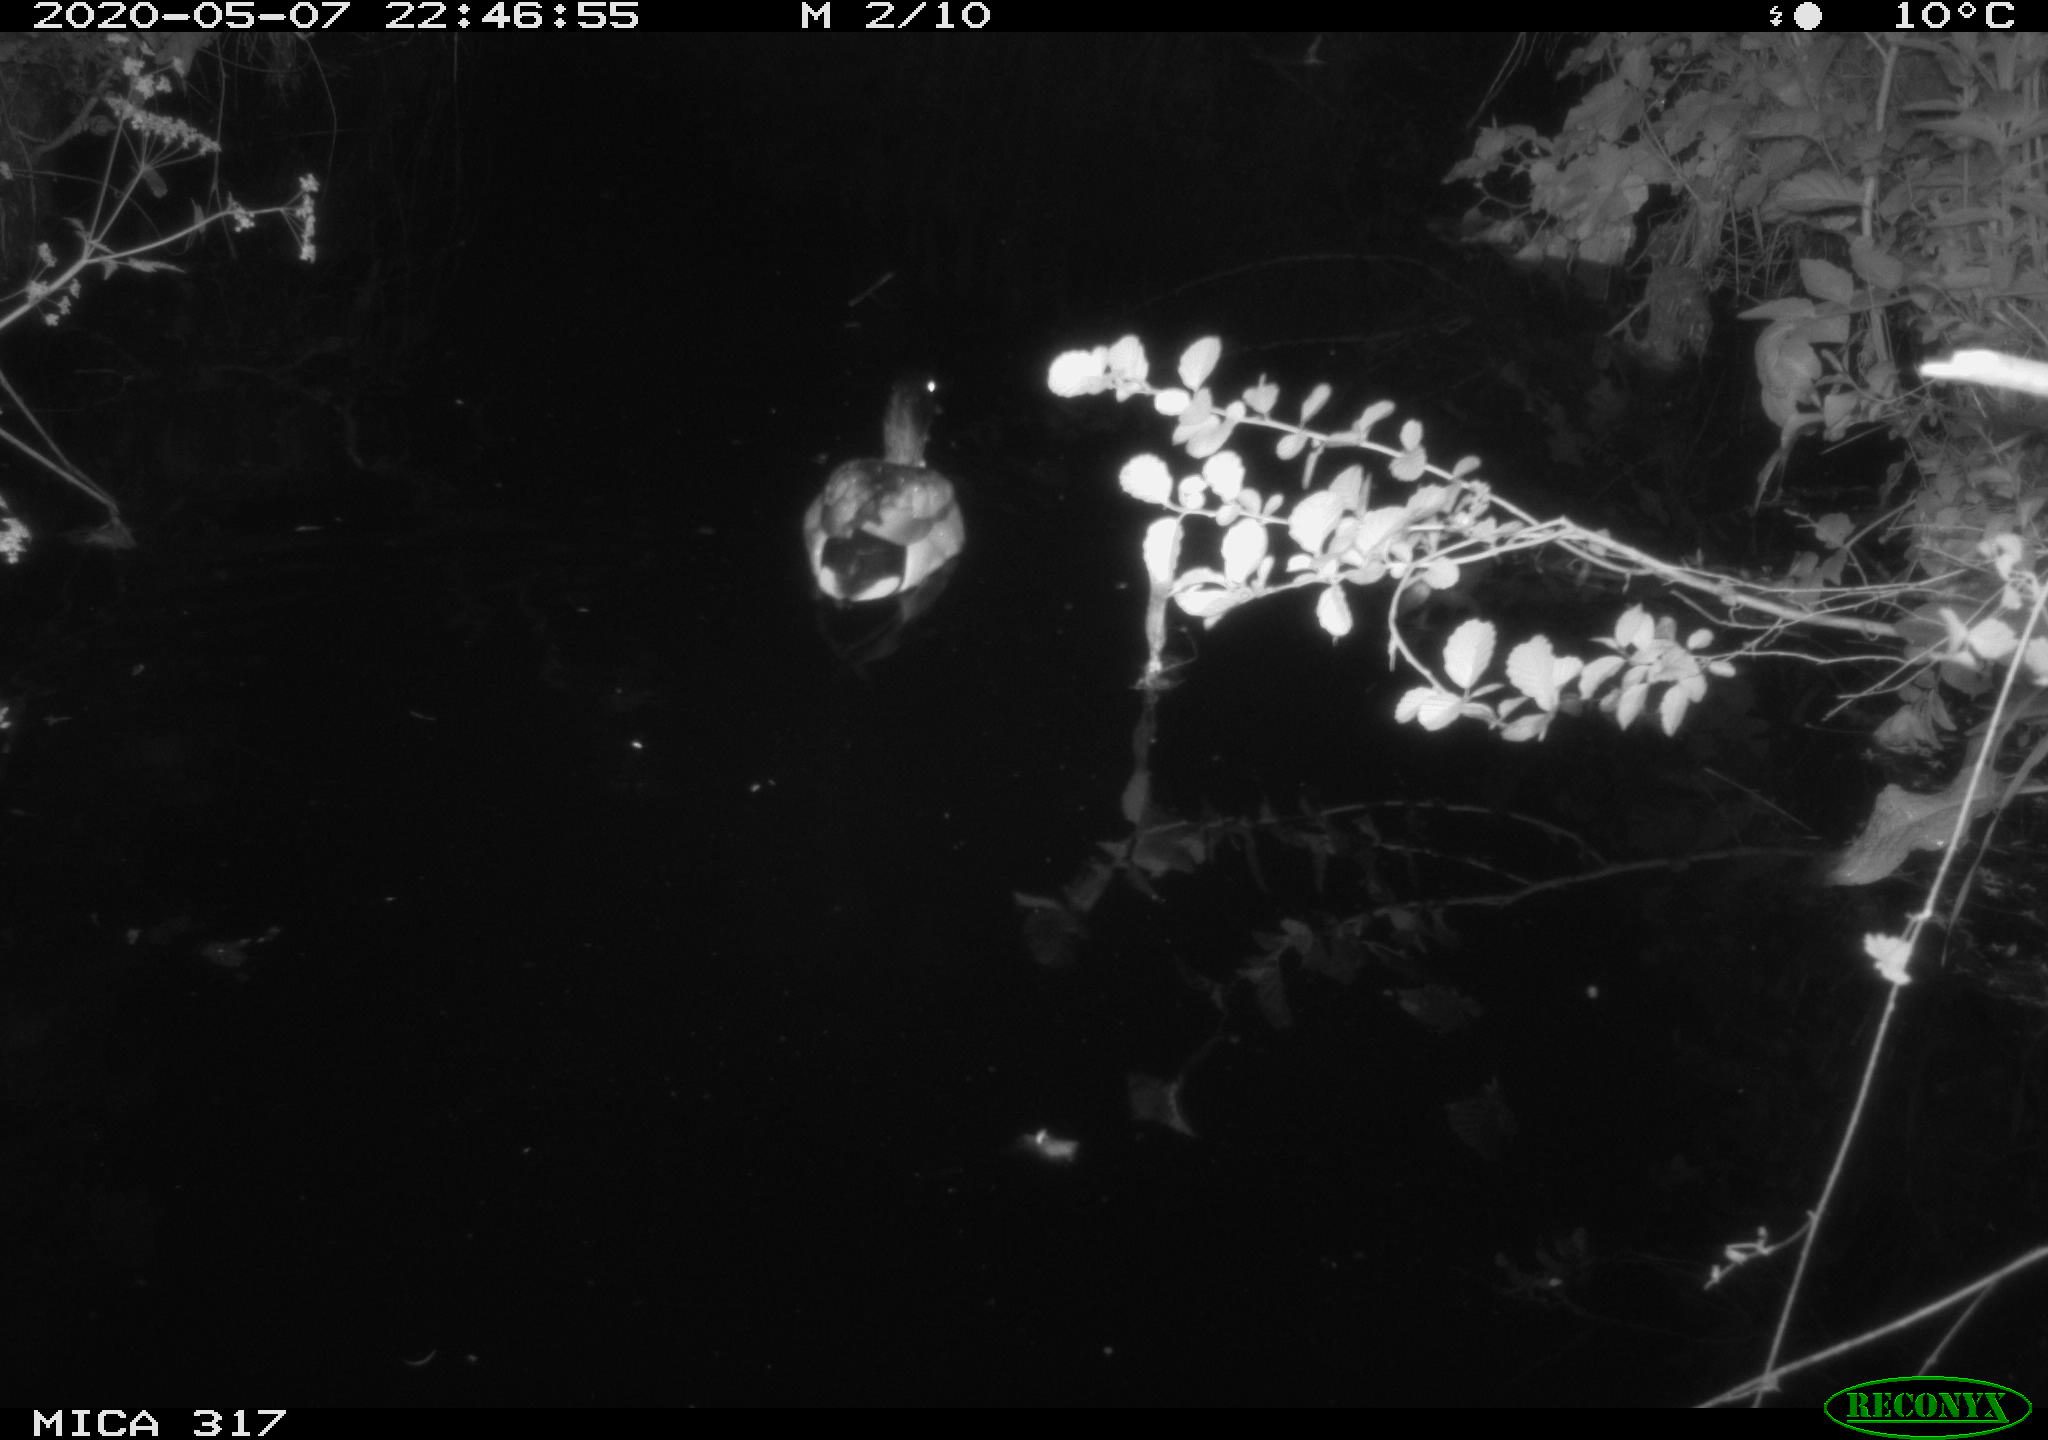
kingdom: Animalia
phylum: Chordata
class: Aves
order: Anseriformes
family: Anatidae
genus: Anas
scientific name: Anas platyrhynchos
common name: Mallard
